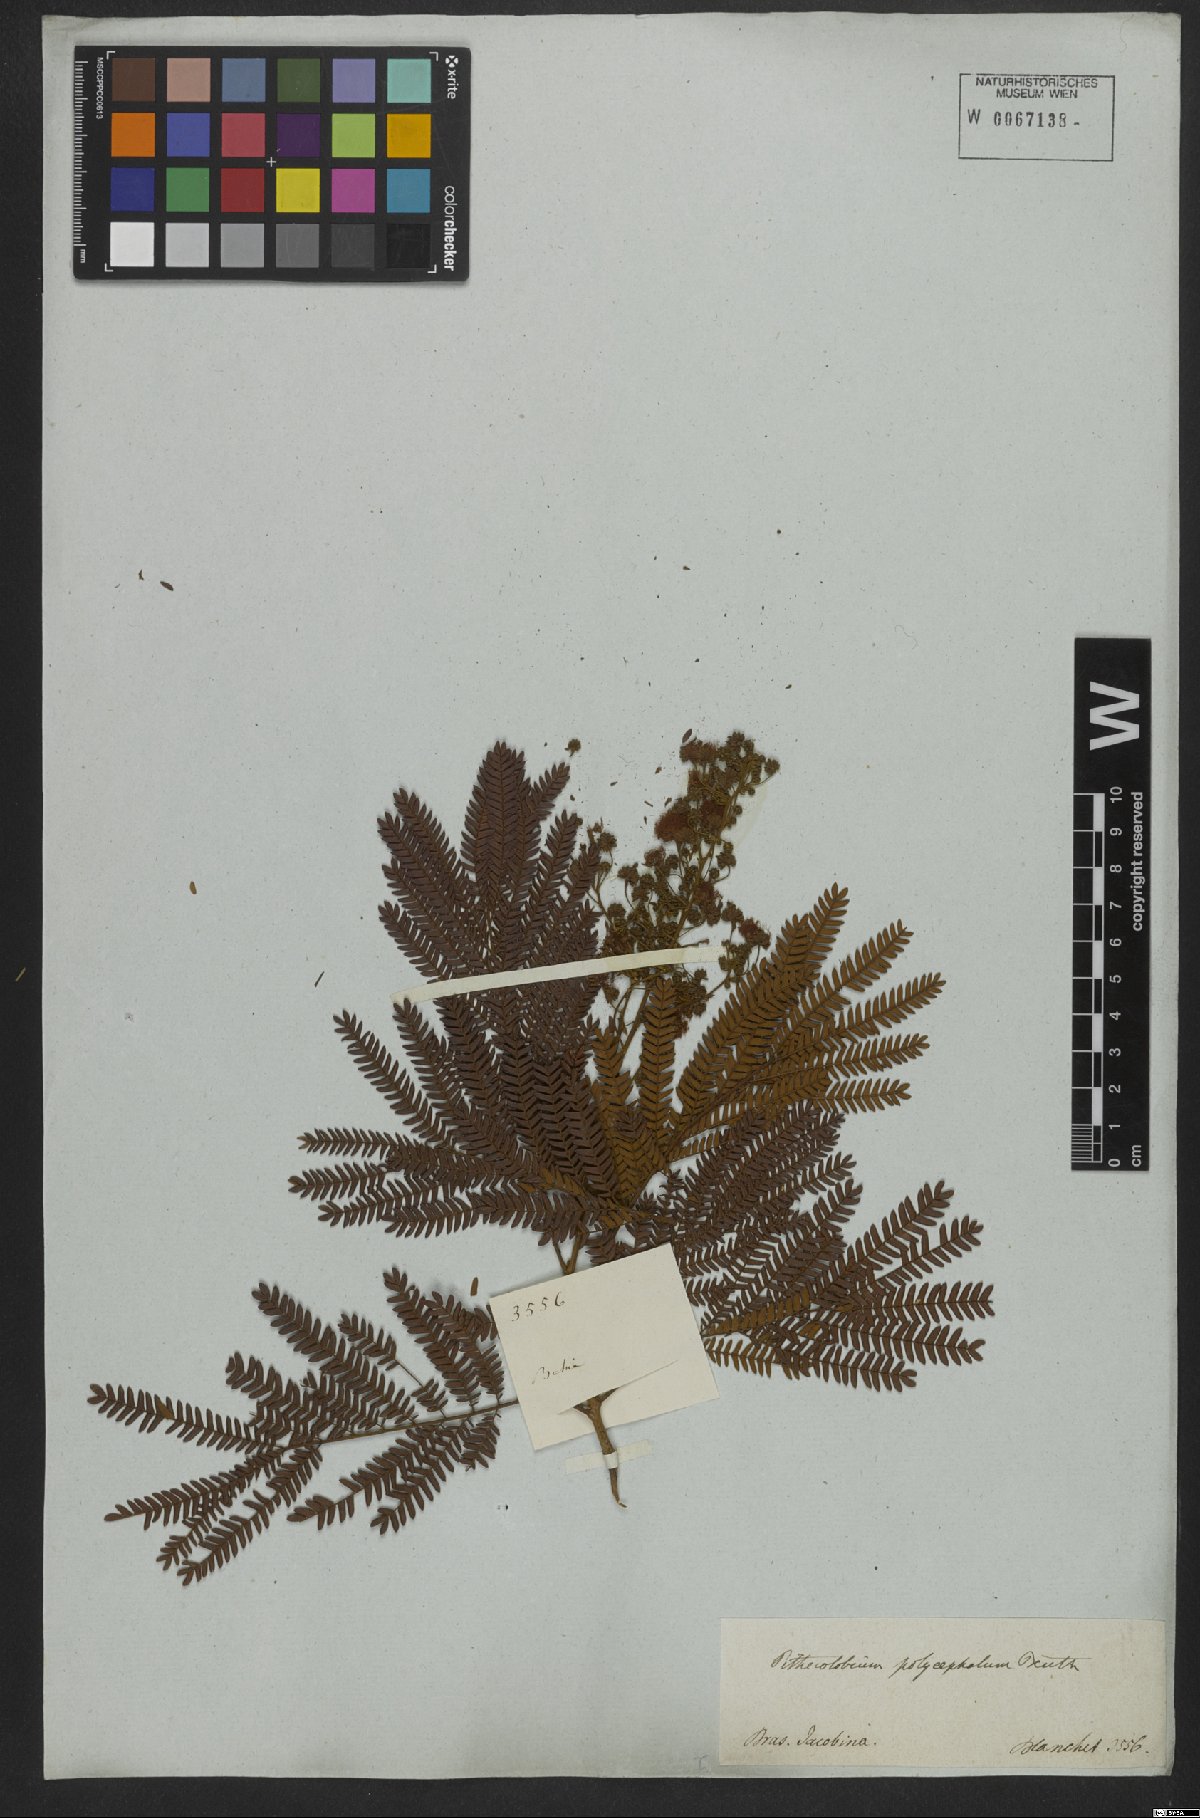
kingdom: Plantae
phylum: Tracheophyta
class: Magnoliopsida
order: Fabales
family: Fabaceae
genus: Albizia
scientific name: Albizia polycephala
